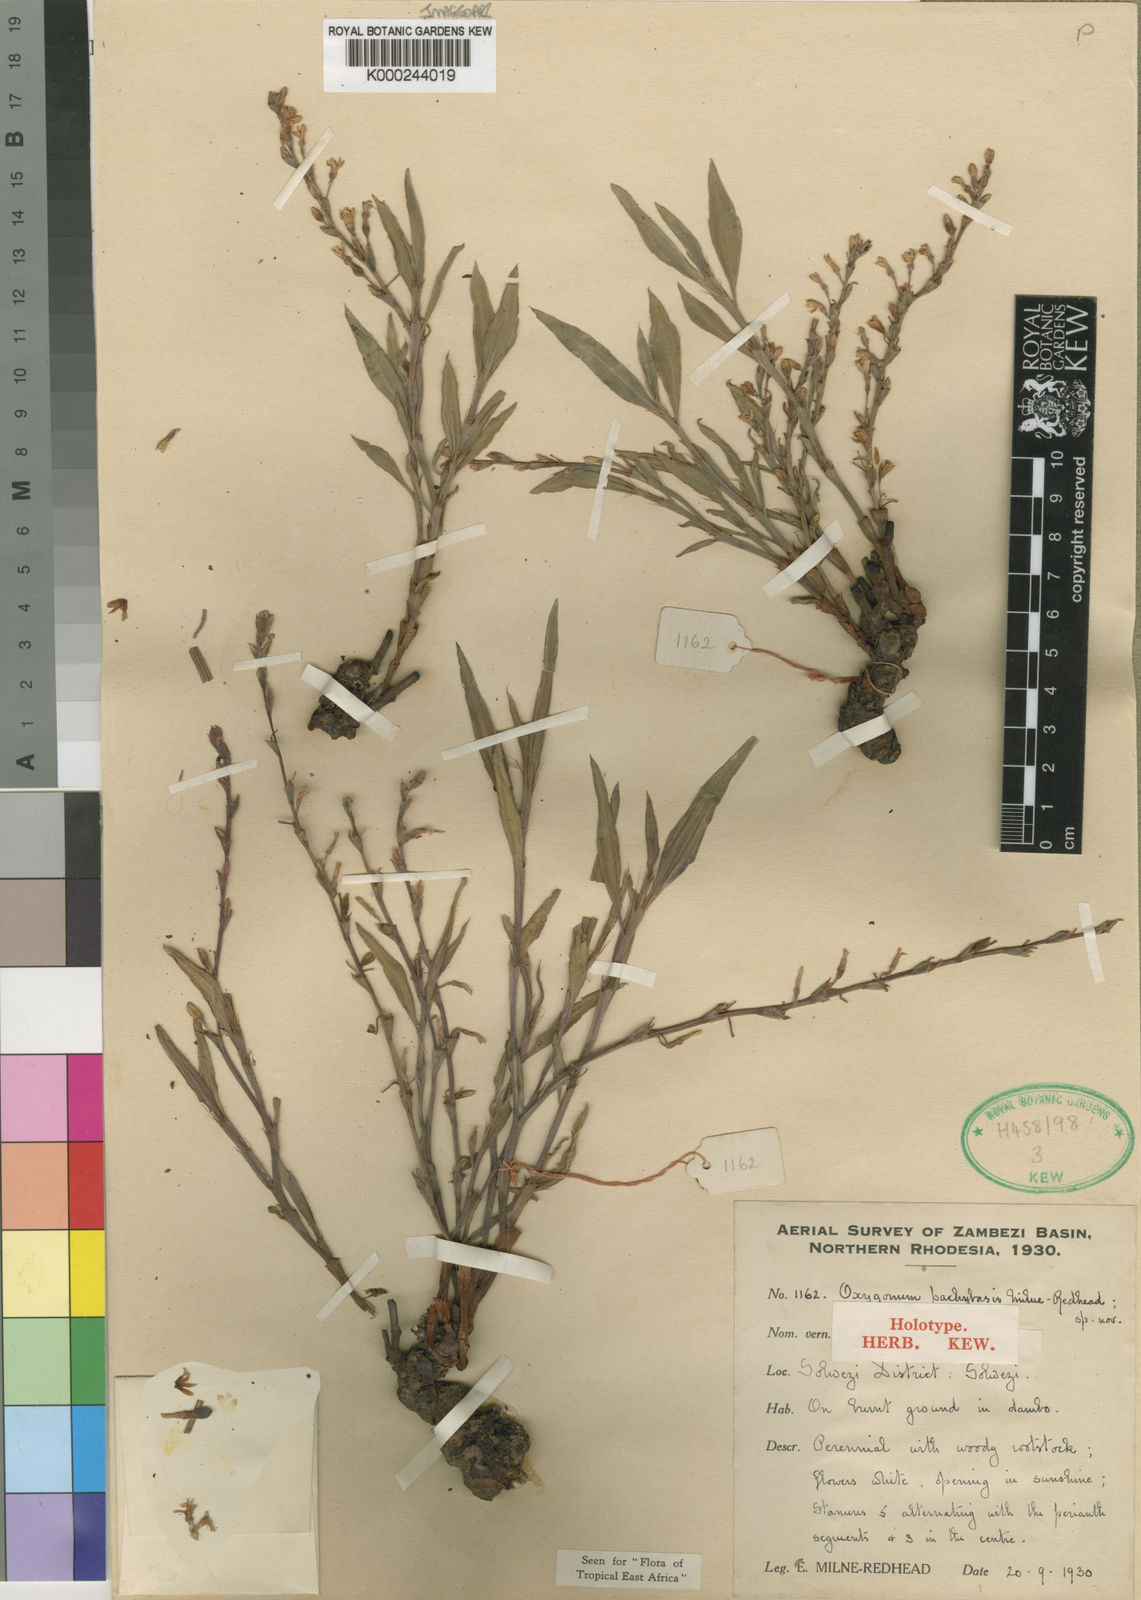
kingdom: Plantae
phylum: Tracheophyta
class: Magnoliopsida
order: Caryophyllales
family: Polygonaceae
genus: Oxygonum
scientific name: Oxygonum pachybasis
